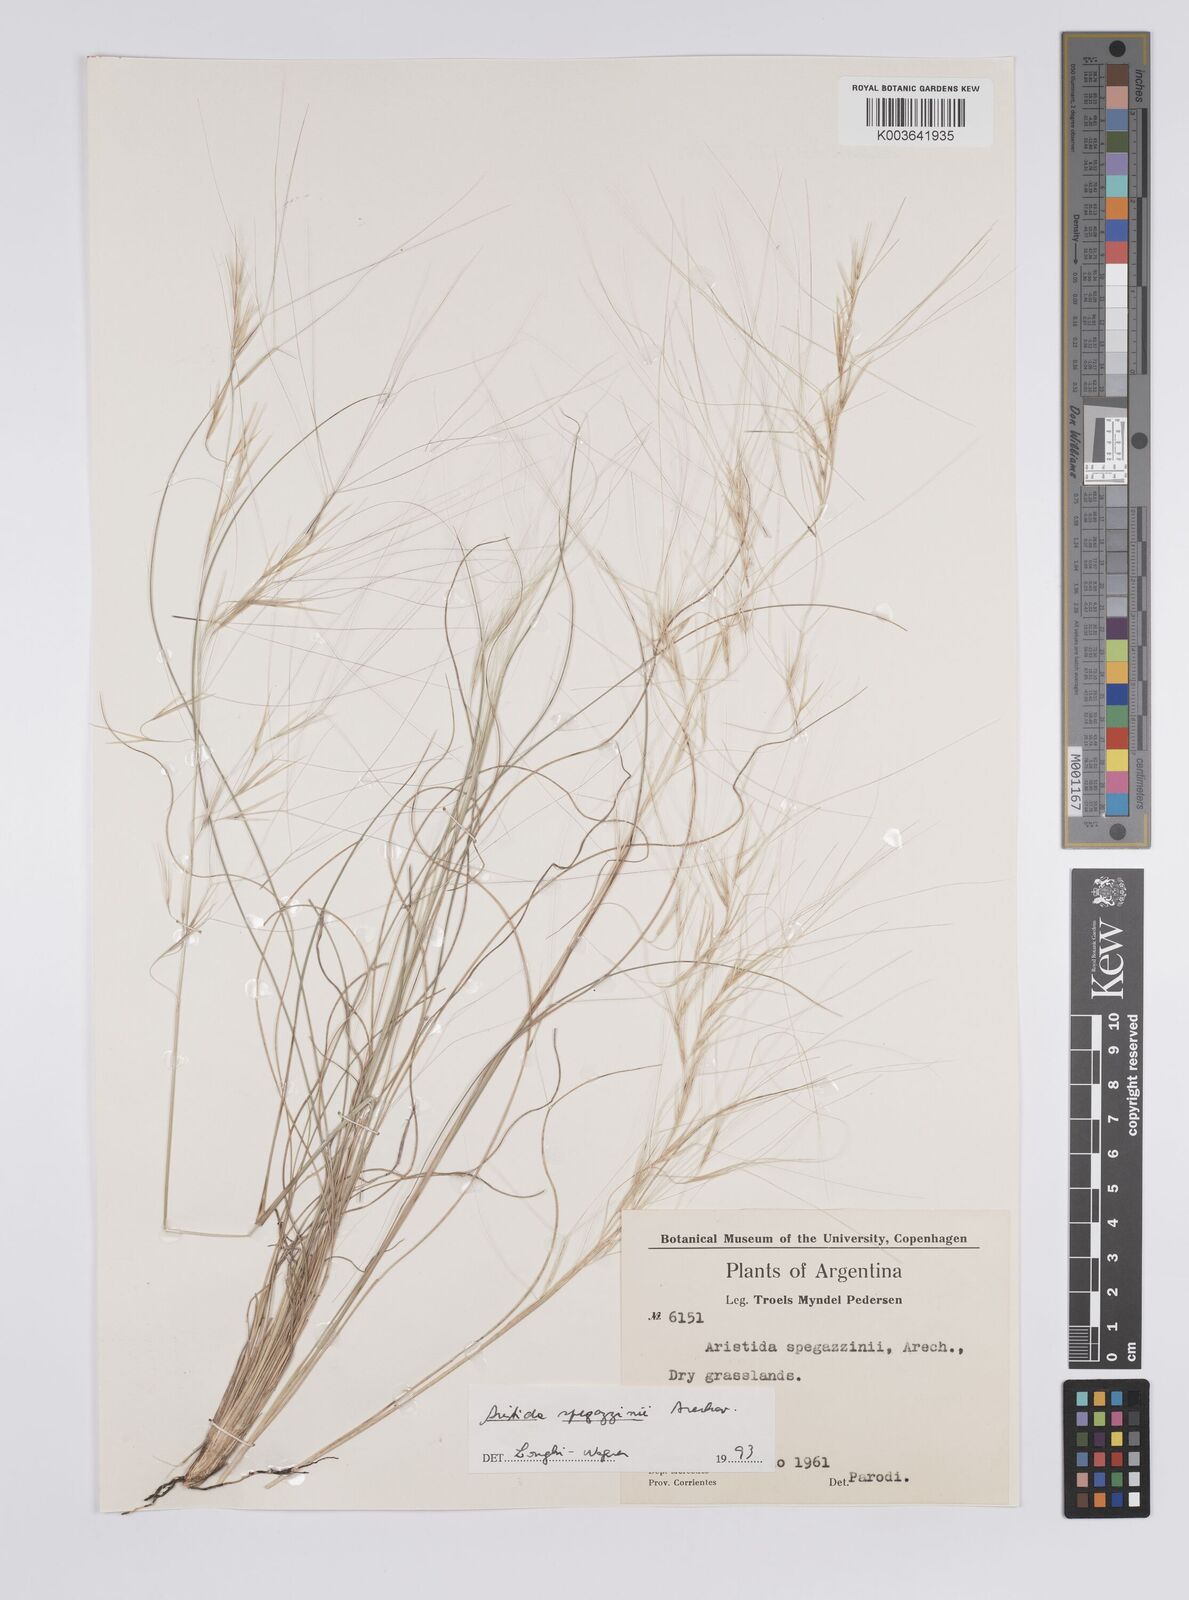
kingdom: Plantae
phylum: Tracheophyta
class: Liliopsida
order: Poales
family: Poaceae
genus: Aristida
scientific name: Aristida spegazzinii
